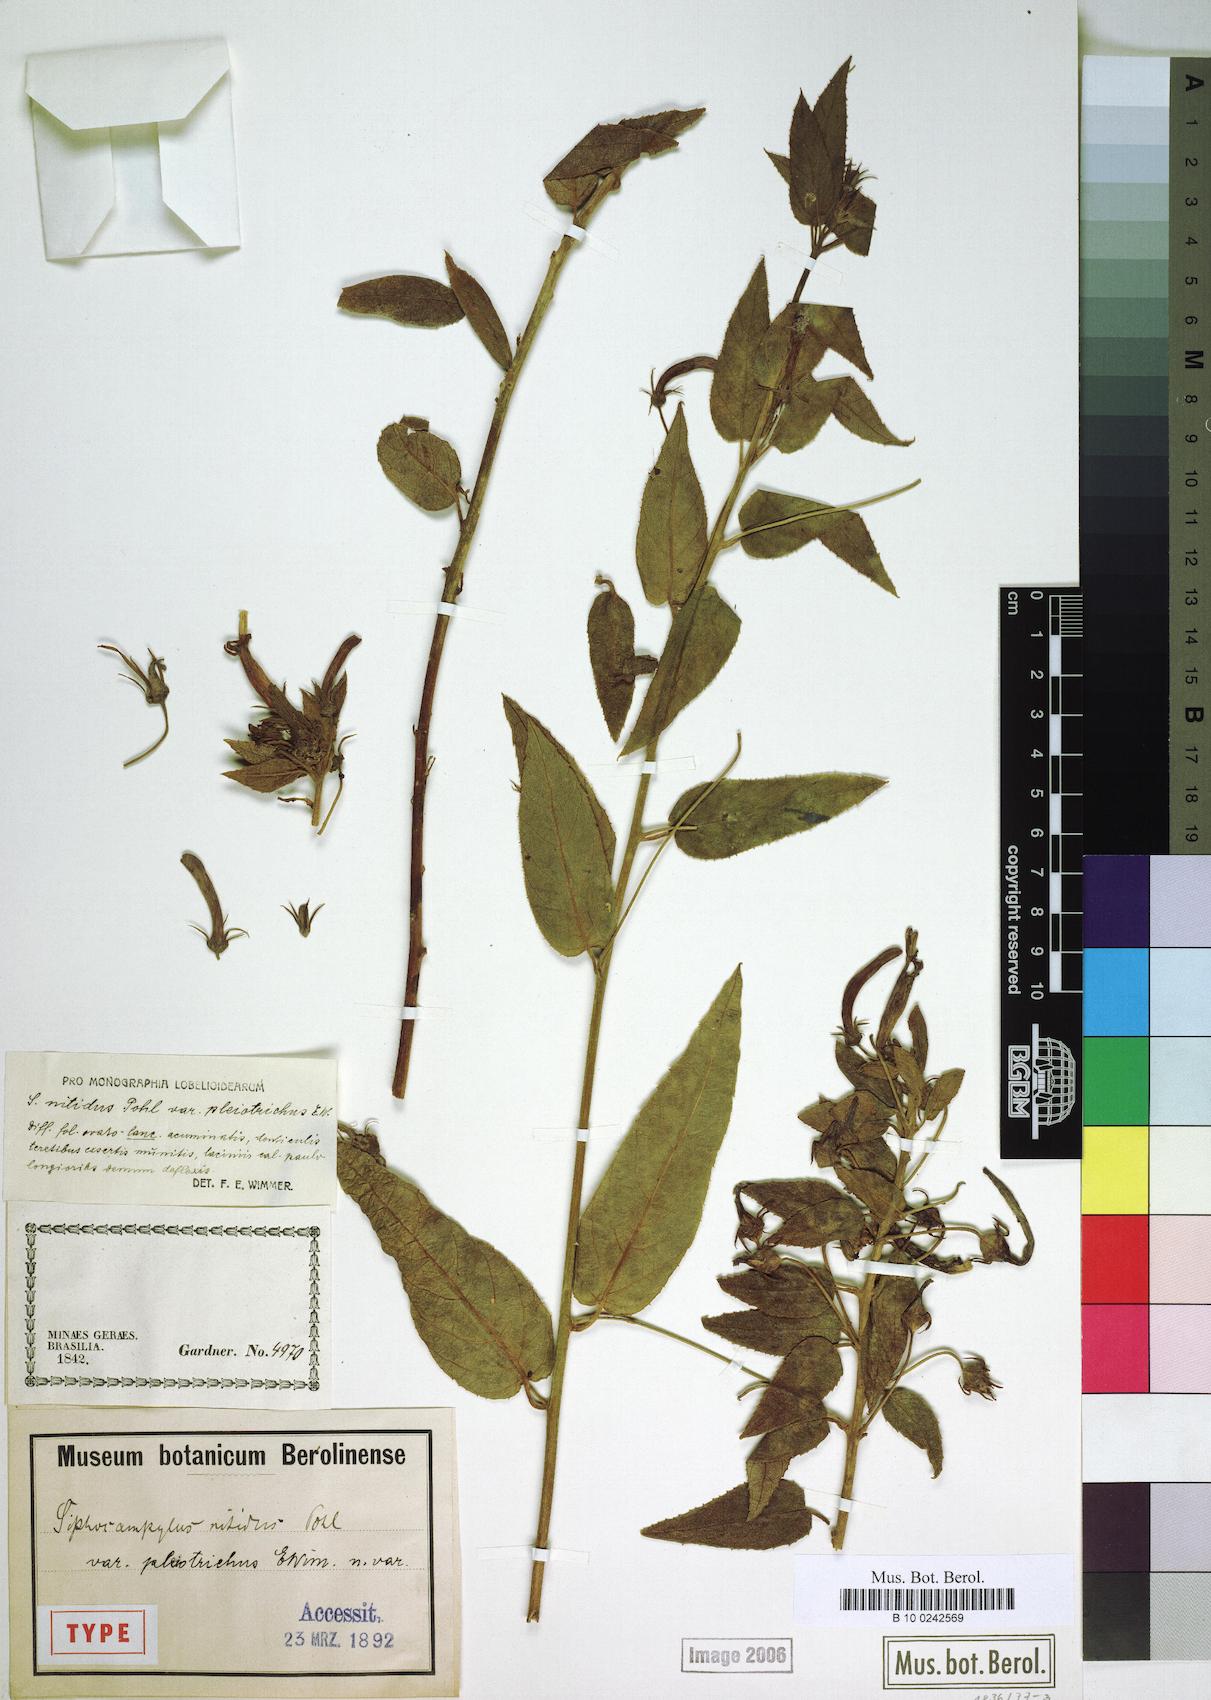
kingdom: Plantae
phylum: Tracheophyta
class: Magnoliopsida
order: Asterales
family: Campanulaceae
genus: Siphocampylus
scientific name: Siphocampylus nitidus
